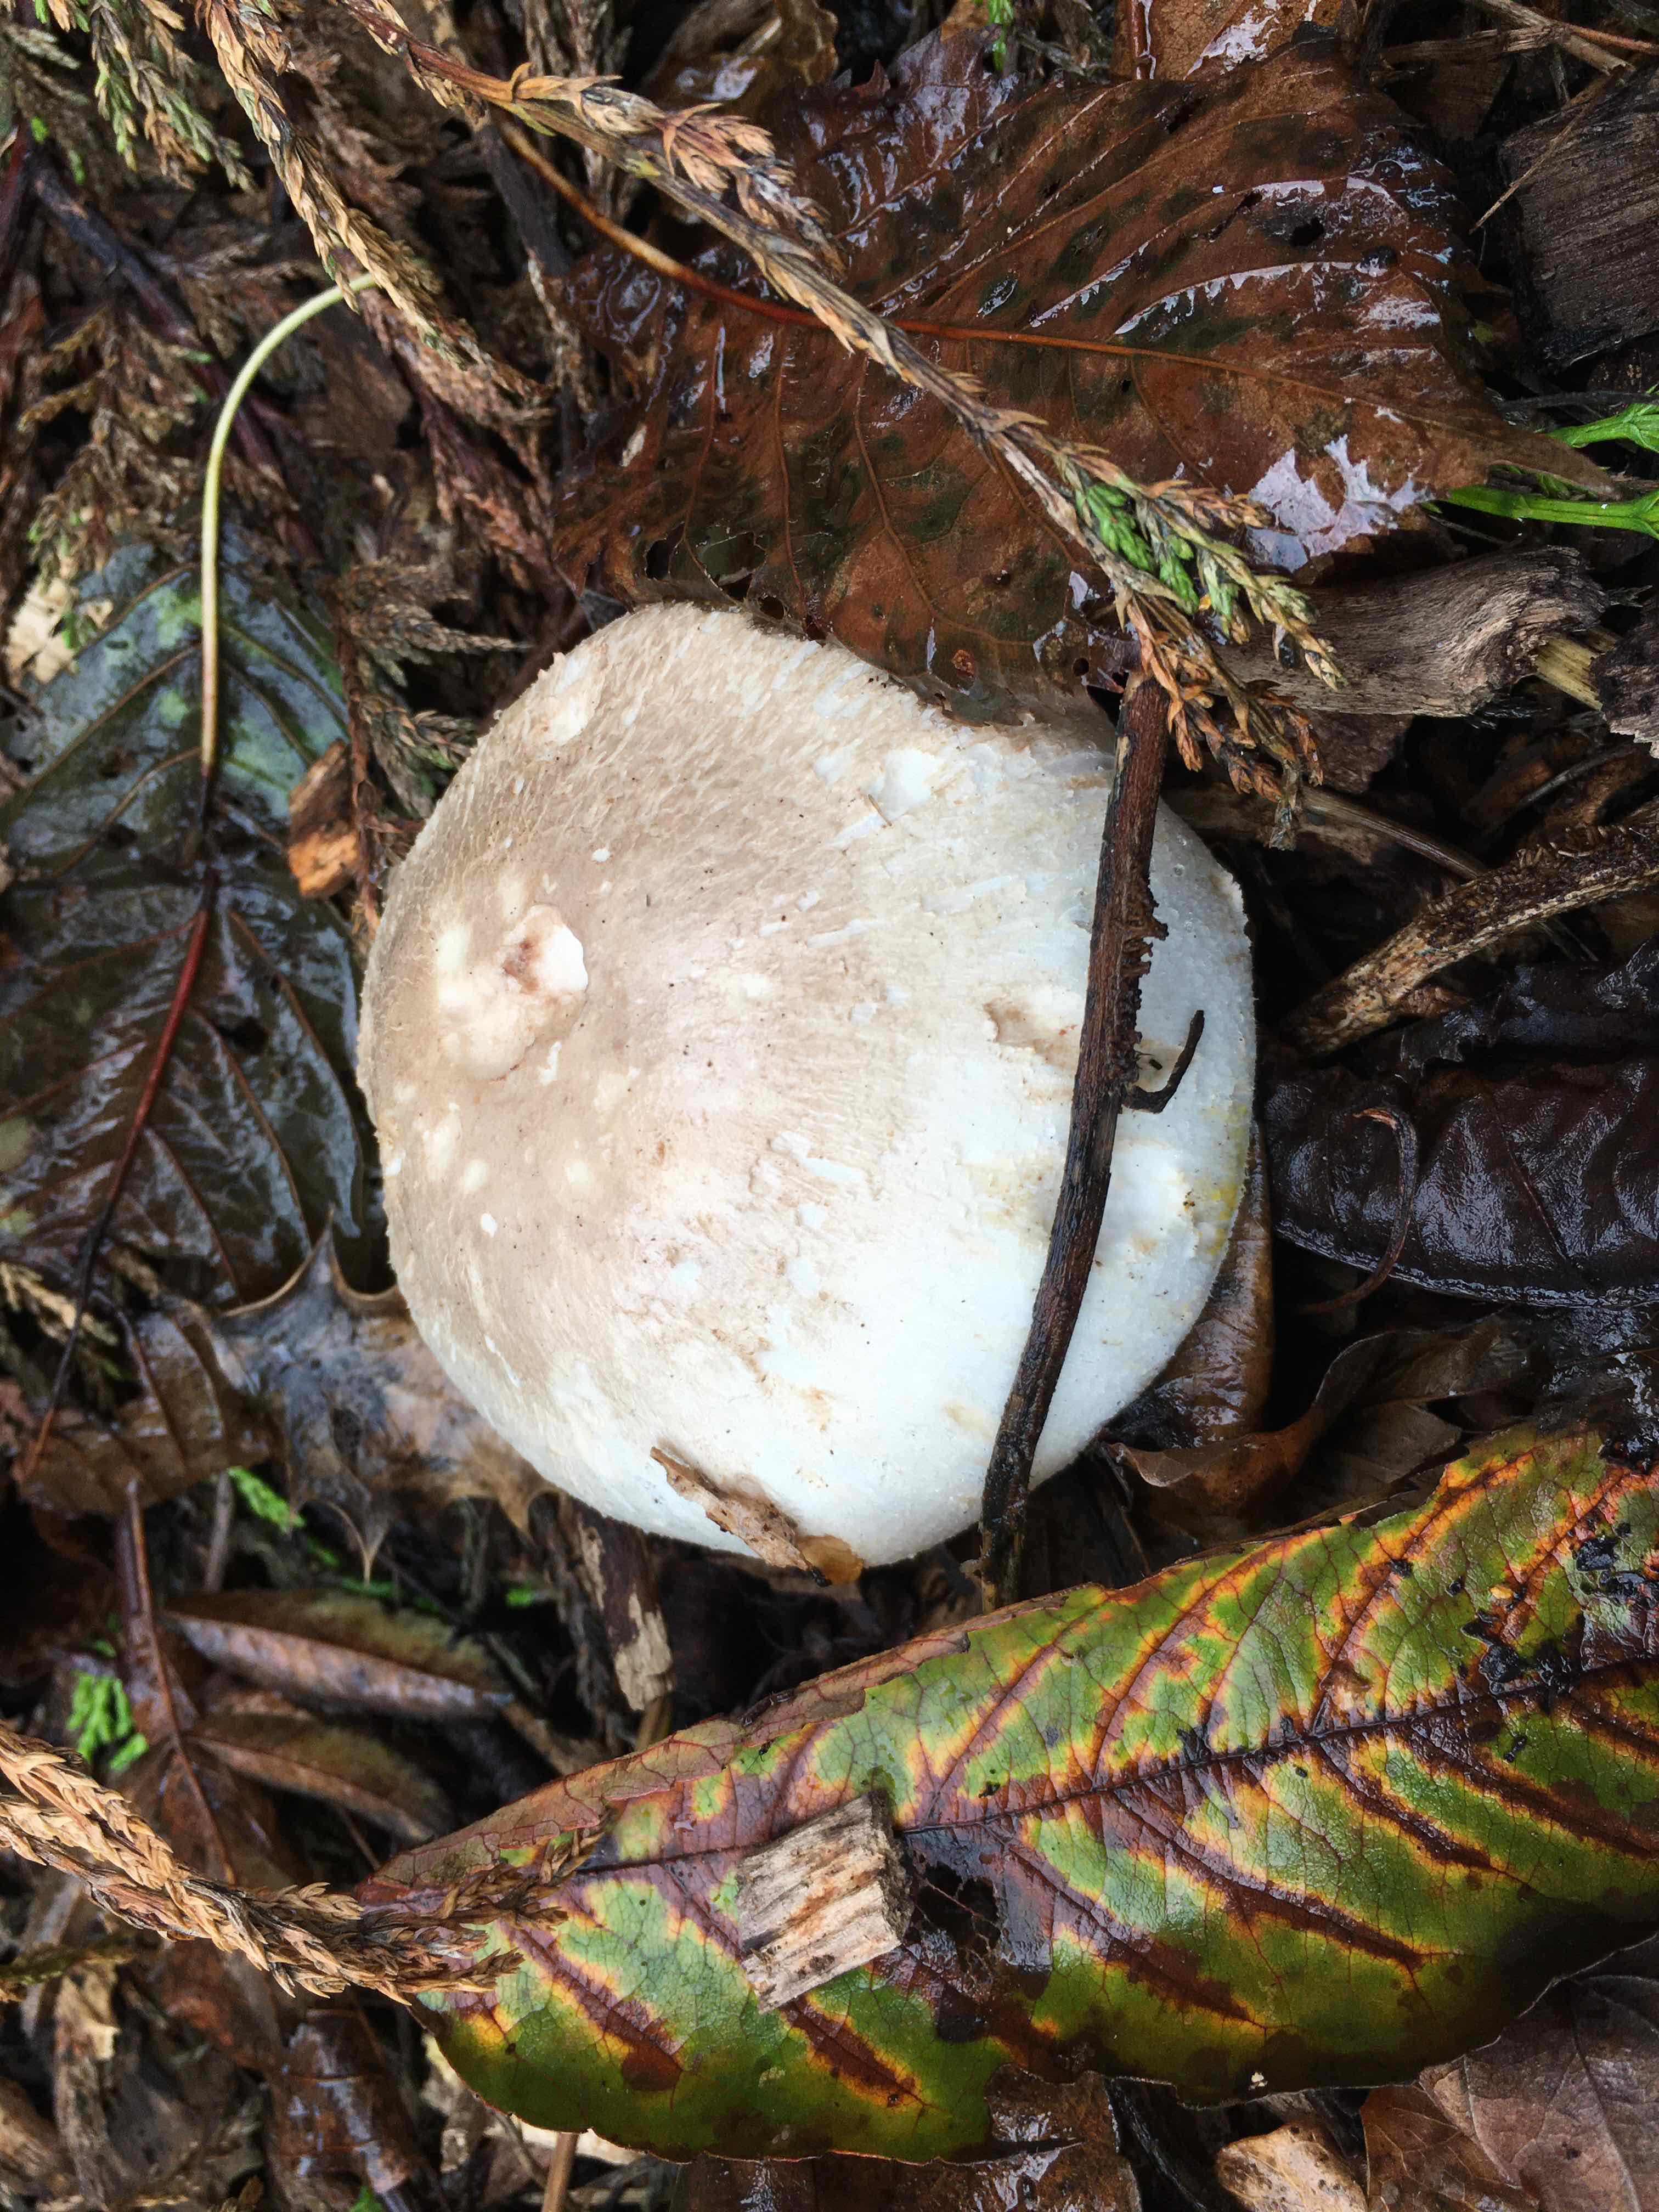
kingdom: Fungi
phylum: Basidiomycota
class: Agaricomycetes
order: Agaricales
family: Agaricaceae
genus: Agaricus
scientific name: Agaricus xanthodermus
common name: karbol-champignon
